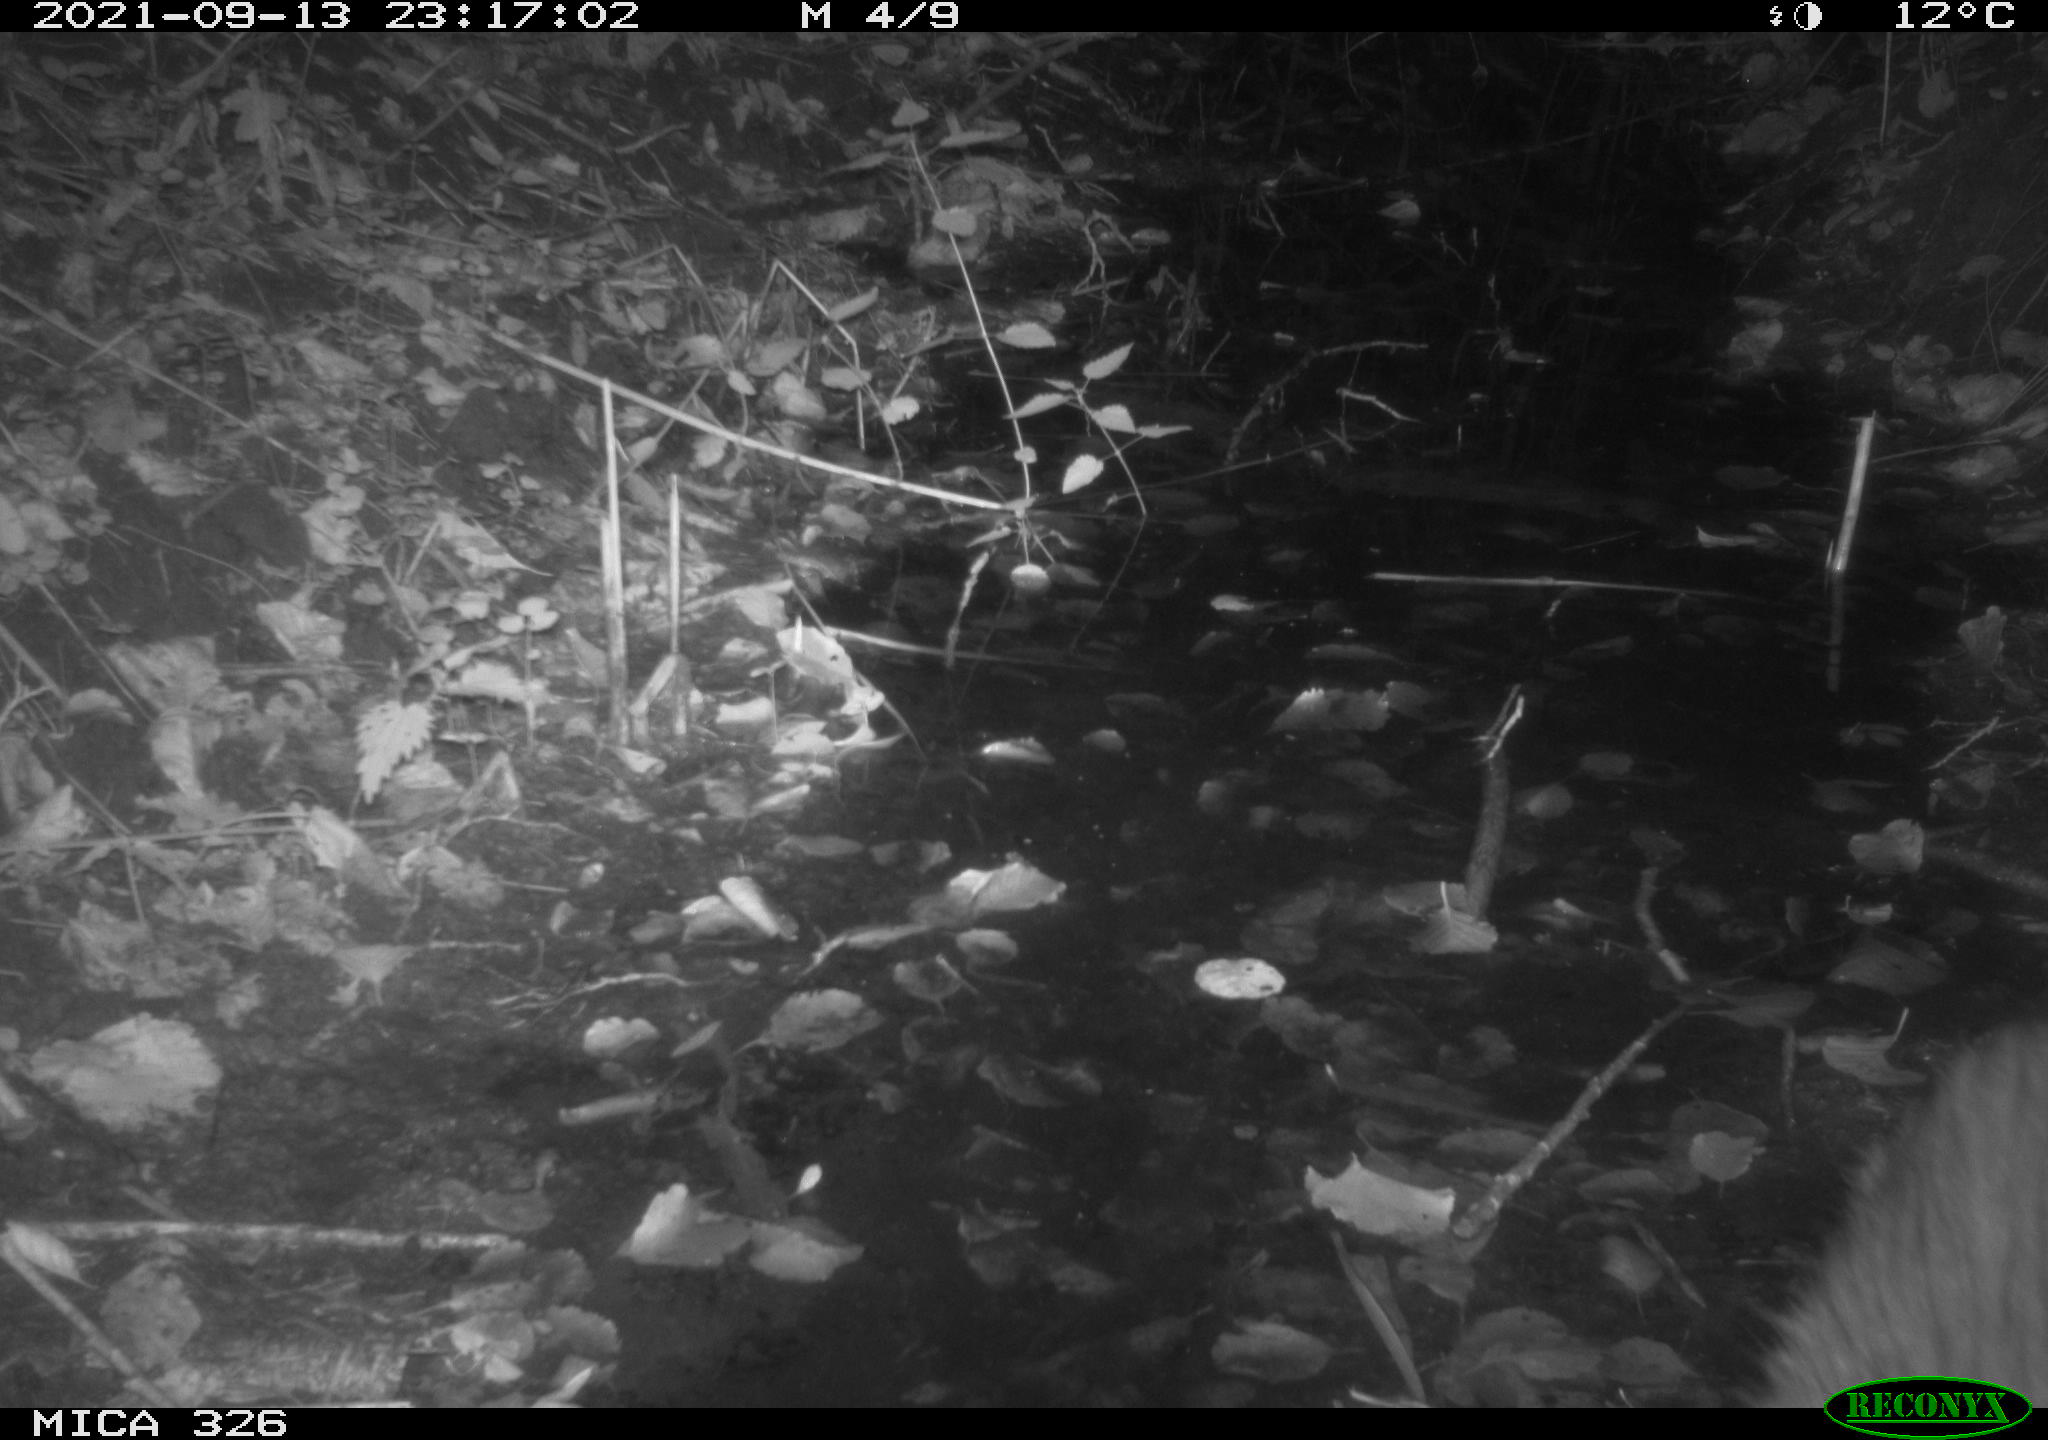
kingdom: Animalia
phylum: Chordata
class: Mammalia
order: Rodentia
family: Myocastoridae
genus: Myocastor
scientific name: Myocastor coypus
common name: Coypu
